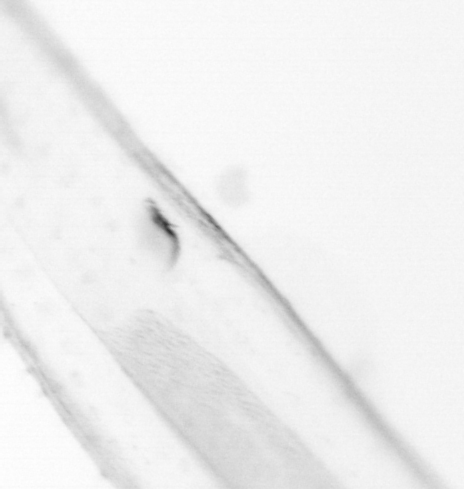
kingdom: Animalia
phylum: Chaetognatha
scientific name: Chaetognatha
